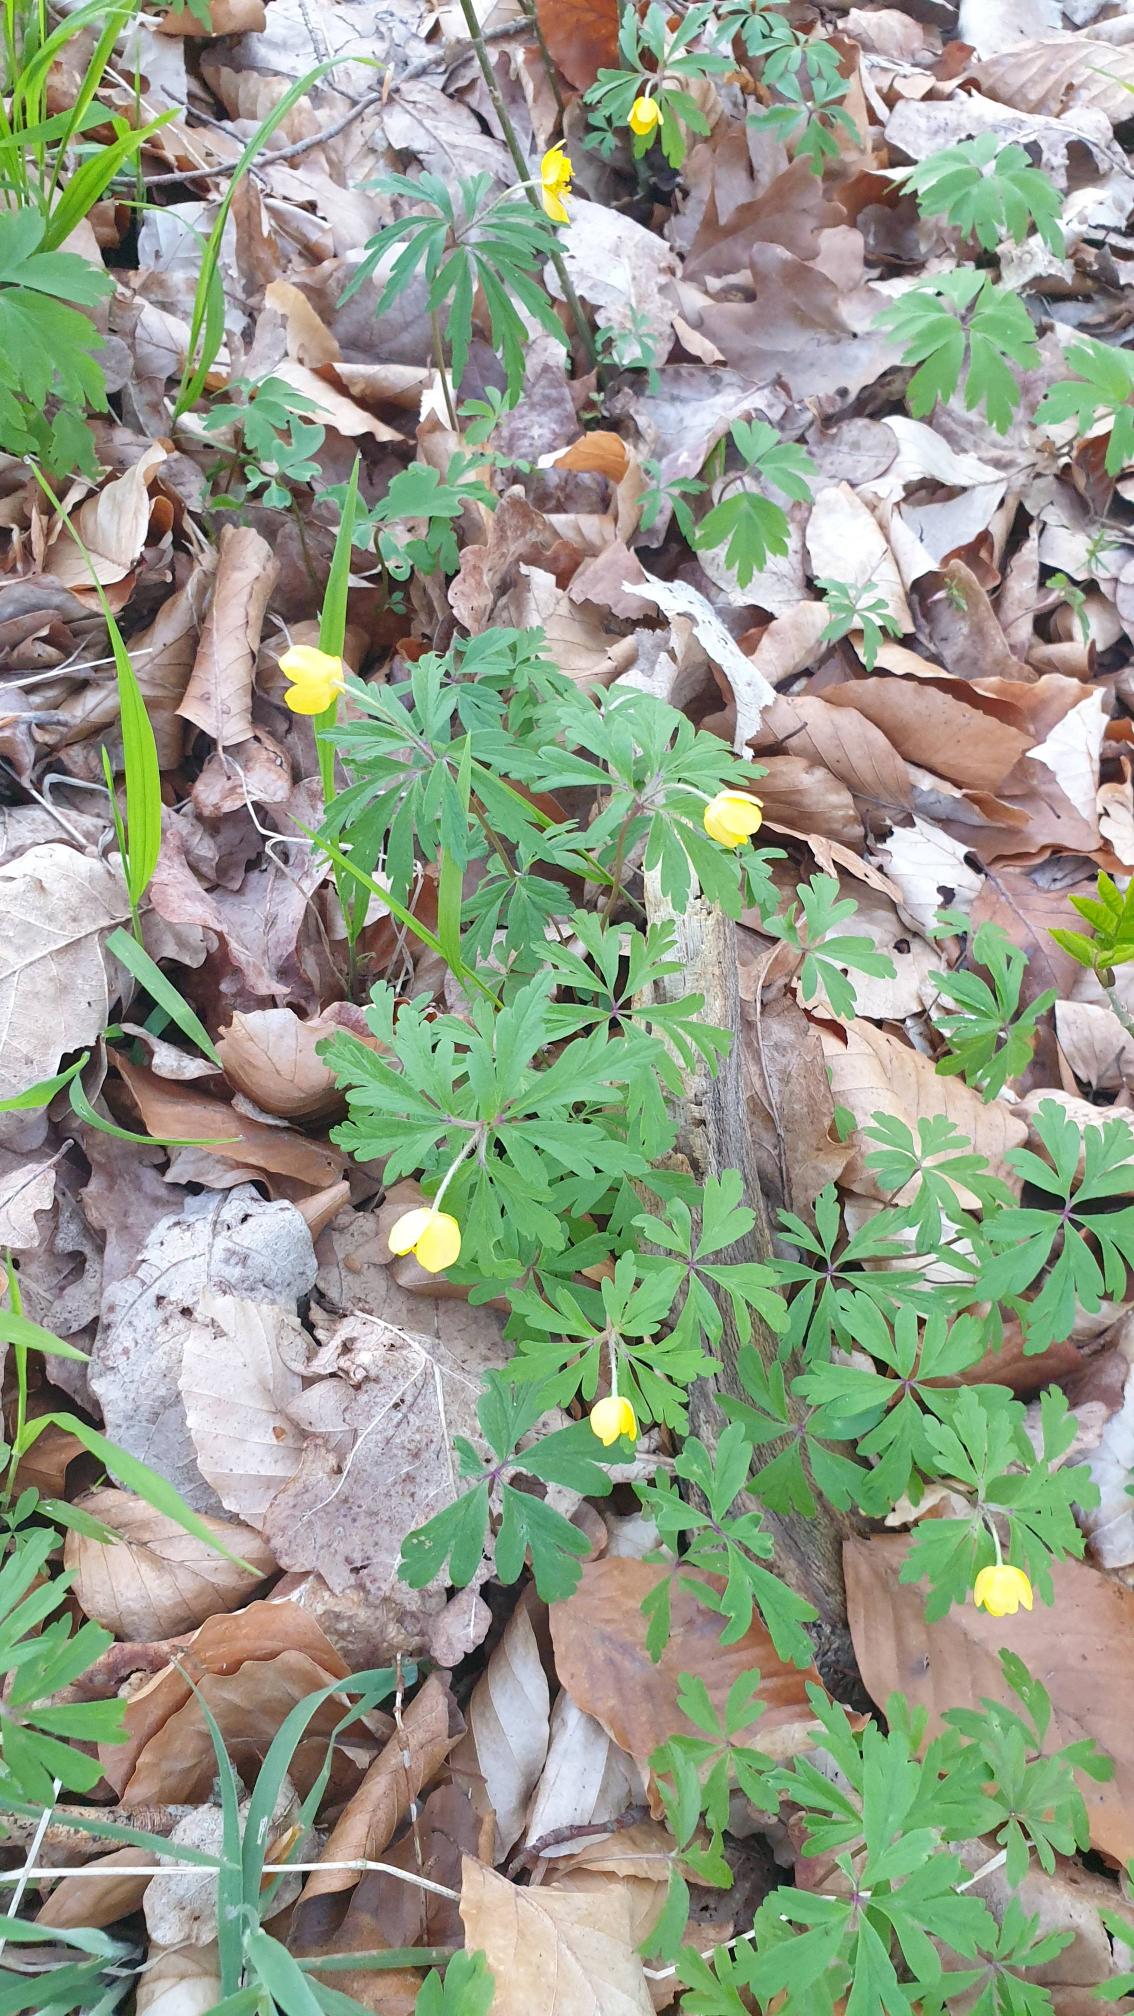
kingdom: Plantae
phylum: Tracheophyta
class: Magnoliopsida
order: Ranunculales
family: Ranunculaceae
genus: Anemone
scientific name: Anemone ranunculoides
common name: Gul anemone
